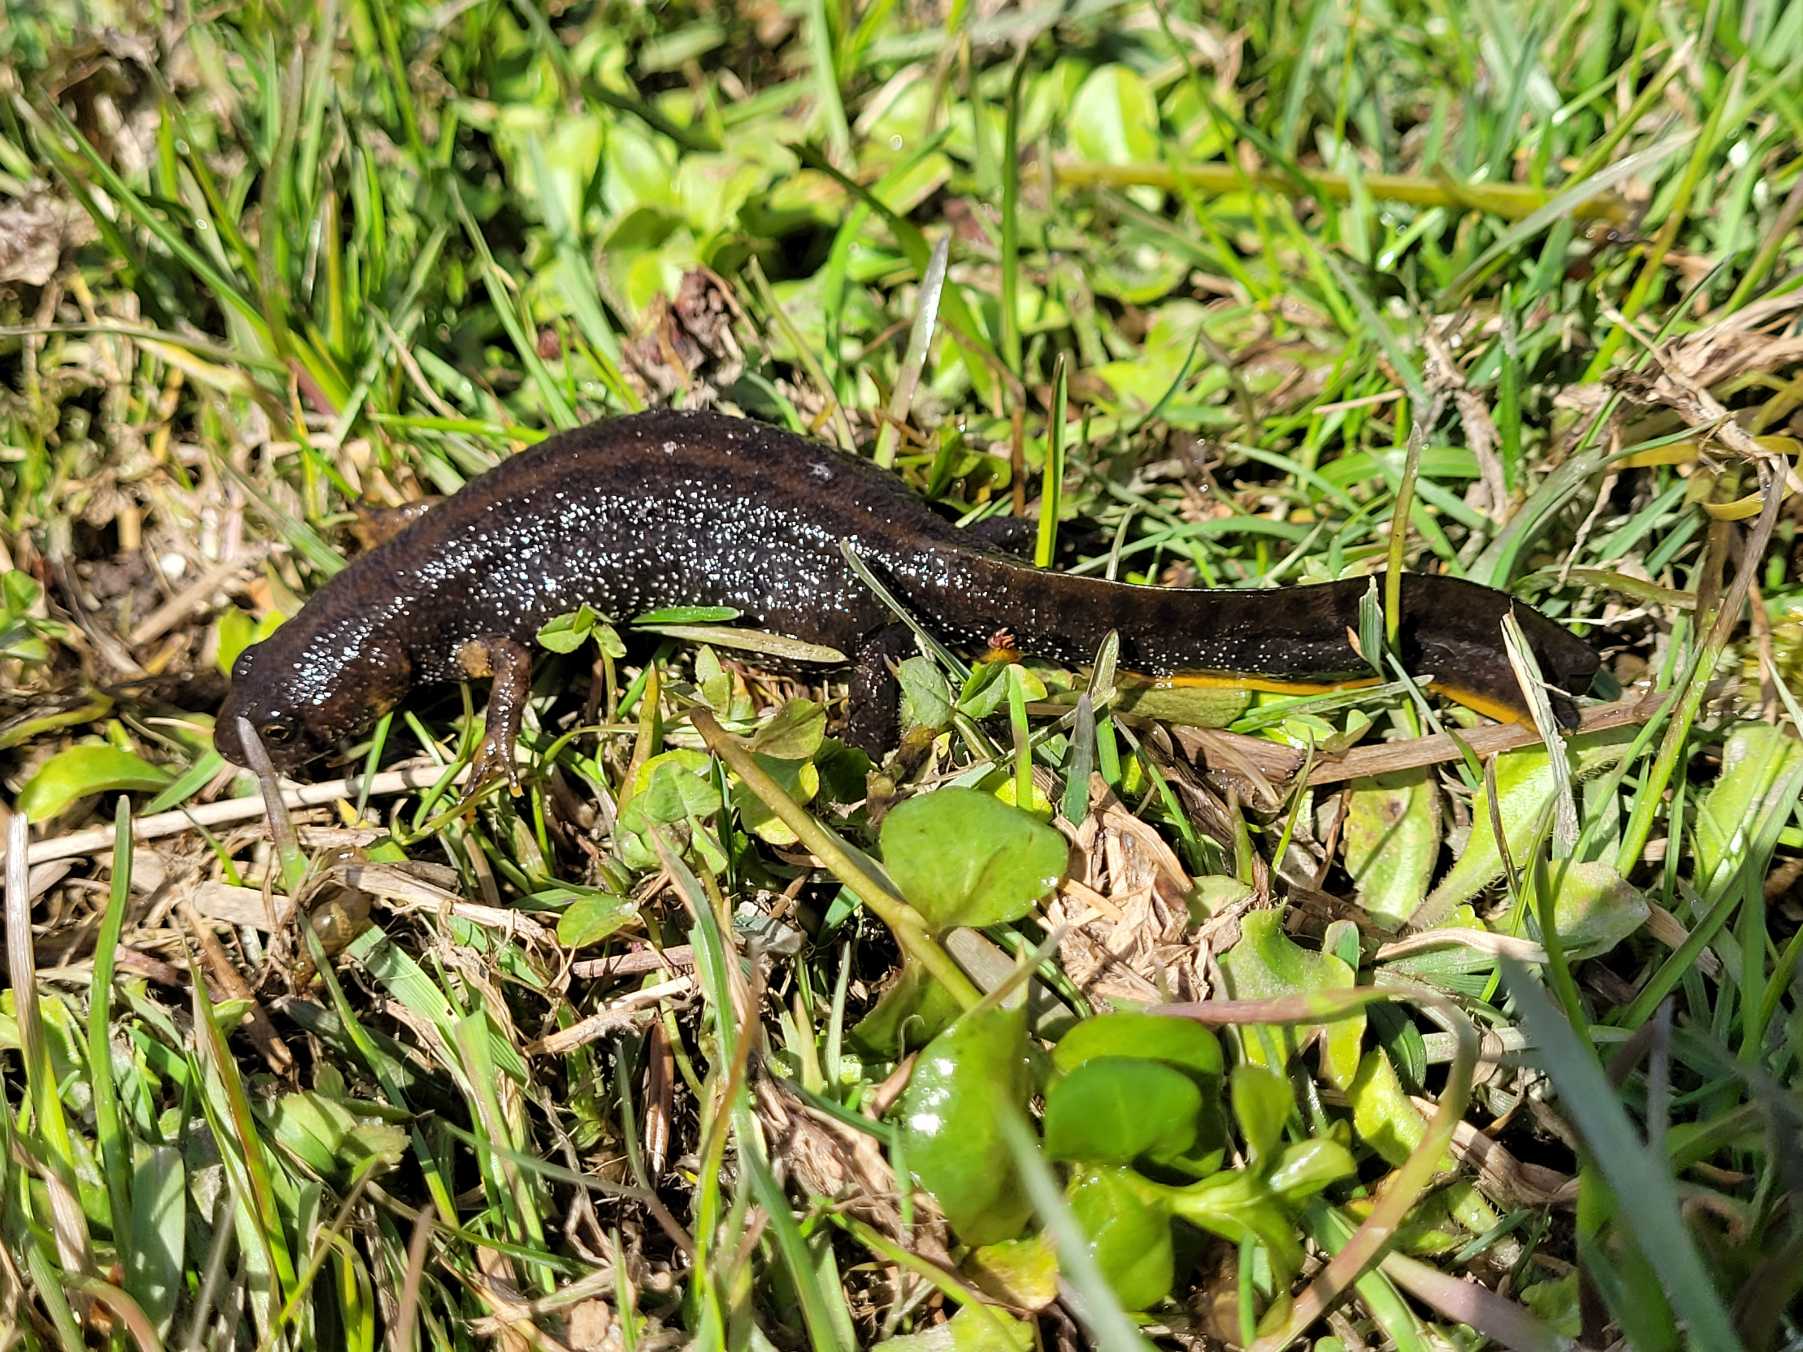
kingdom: Animalia
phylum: Chordata
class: Amphibia
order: Caudata
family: Salamandridae
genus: Triturus
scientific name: Triturus cristatus
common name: Stor vandsalamander
